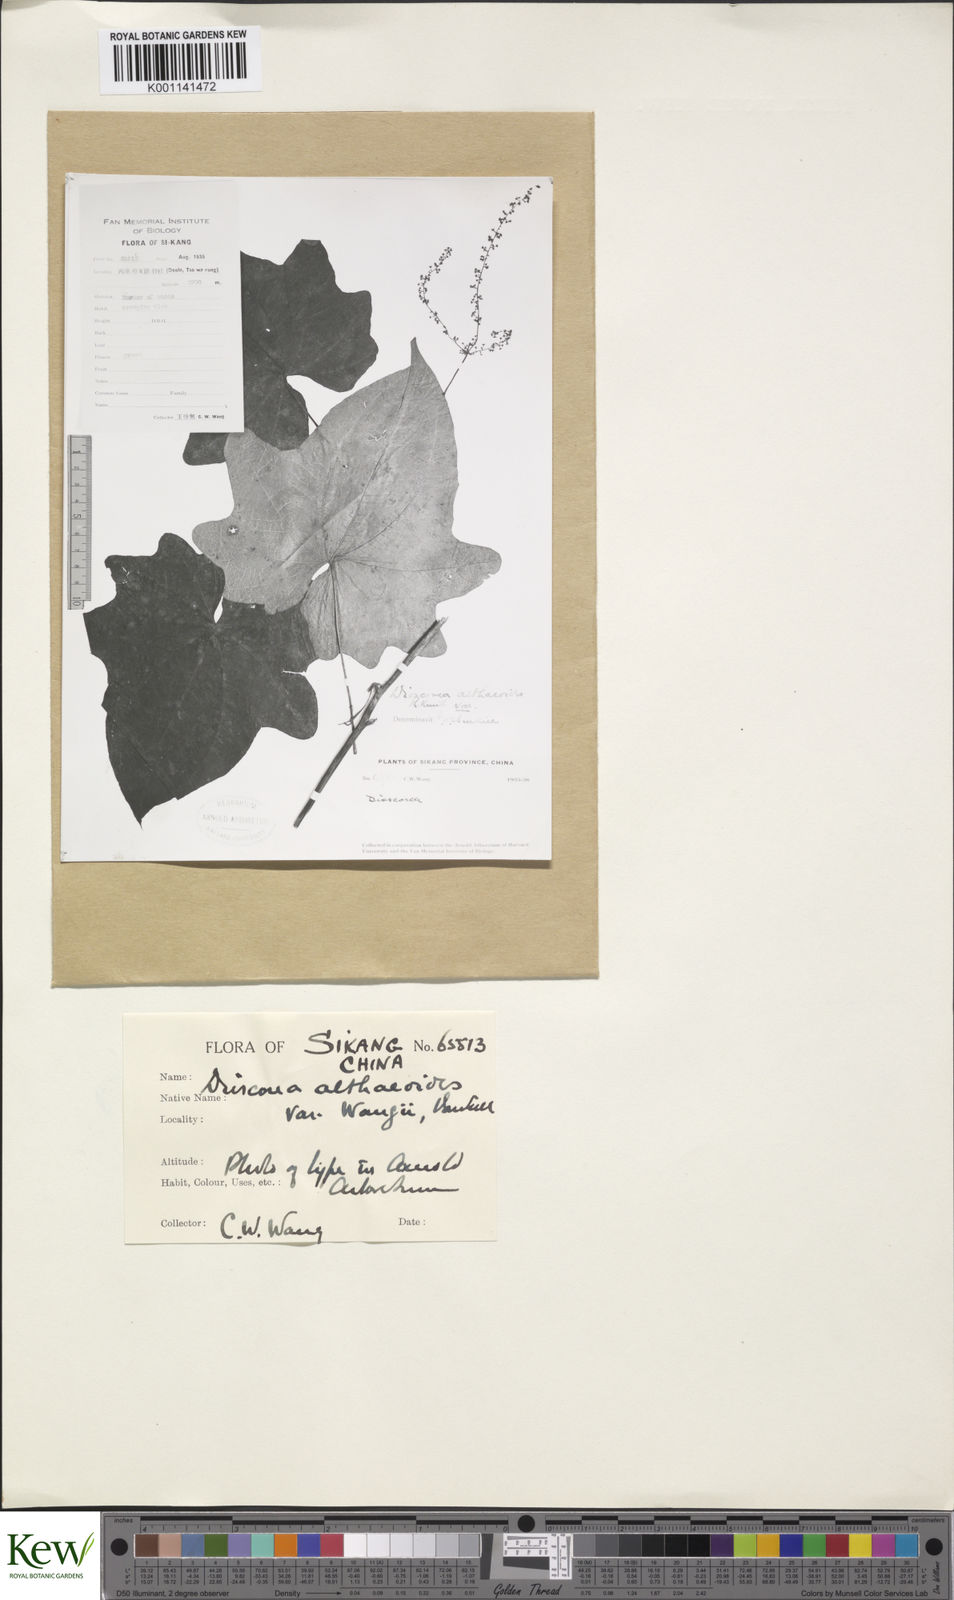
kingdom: Plantae
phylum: Tracheophyta
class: Liliopsida
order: Dioscoreales
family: Dioscoreaceae
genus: Dioscorea
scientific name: Dioscorea althaeoides
